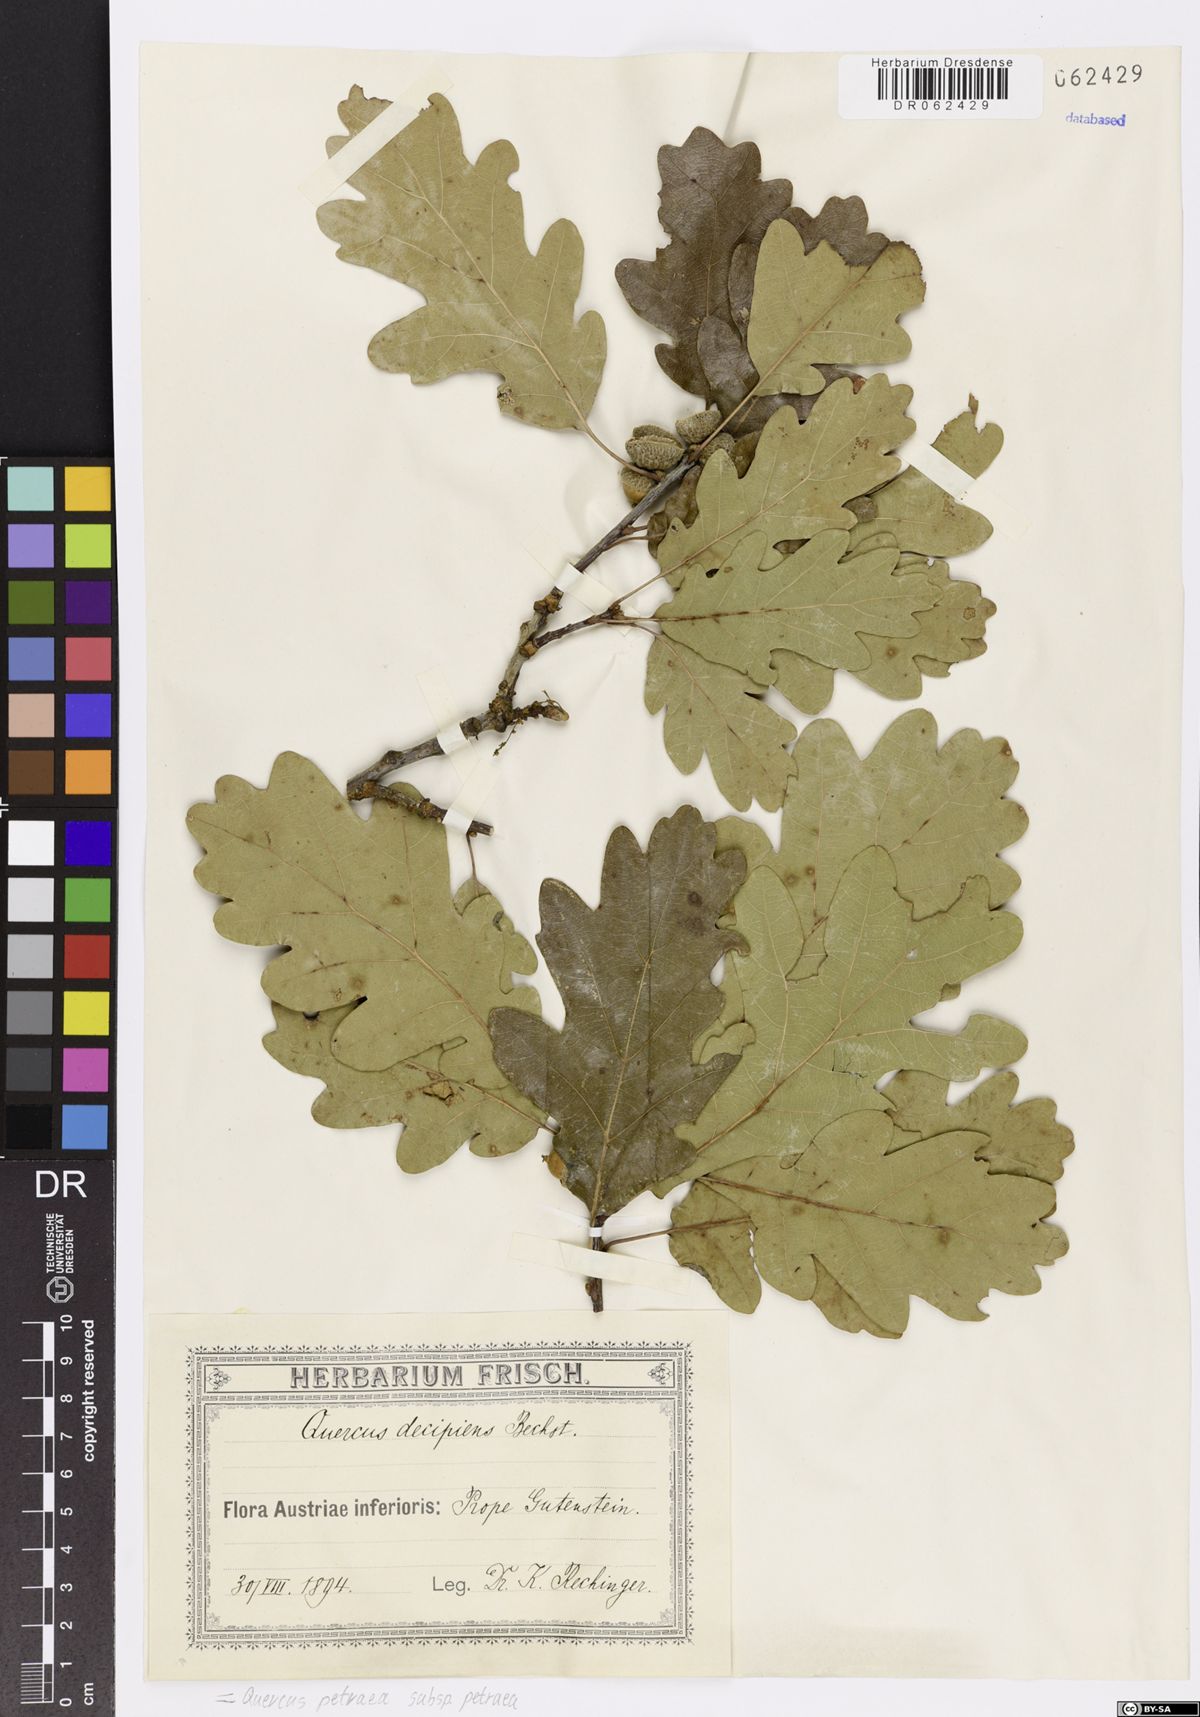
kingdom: Plantae
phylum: Tracheophyta
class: Magnoliopsida
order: Fagales
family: Fagaceae
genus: Quercus
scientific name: Quercus petraea
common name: Sessile oak
